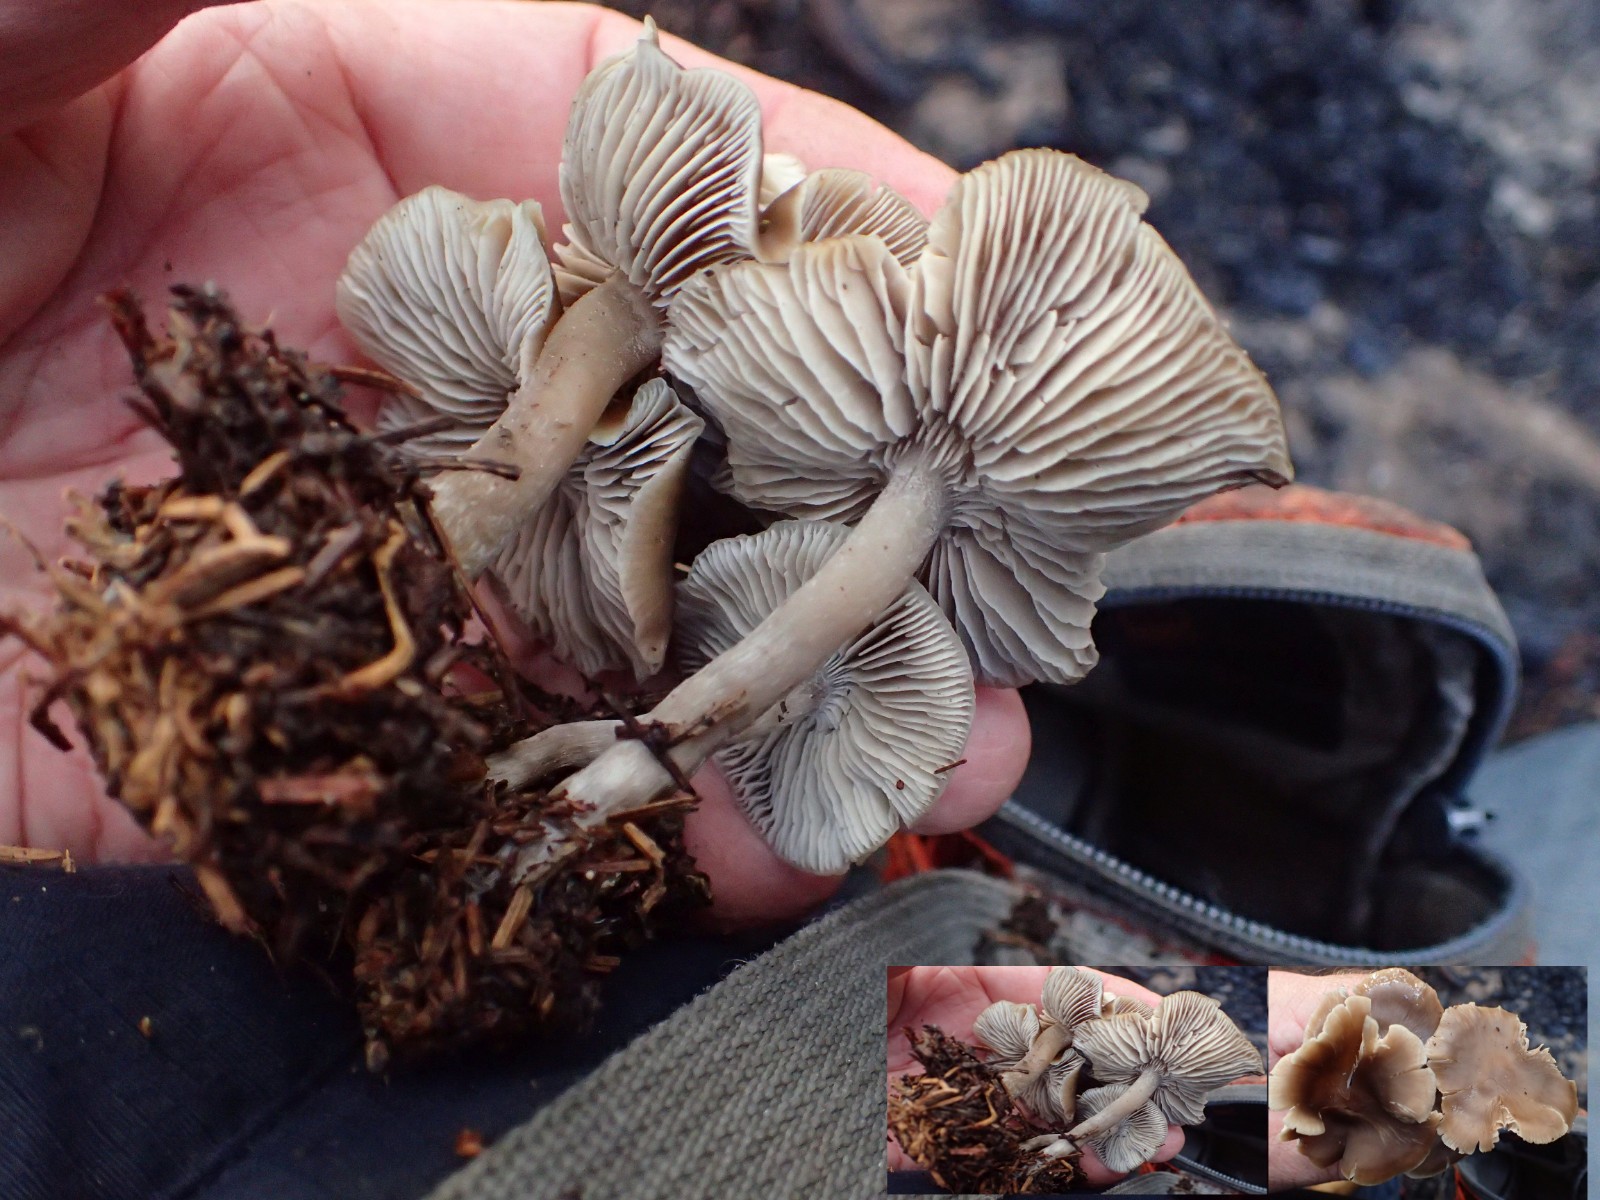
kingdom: Fungi
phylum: Basidiomycota
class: Agaricomycetes
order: Agaricales
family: Lyophyllaceae
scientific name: Lyophyllaceae
